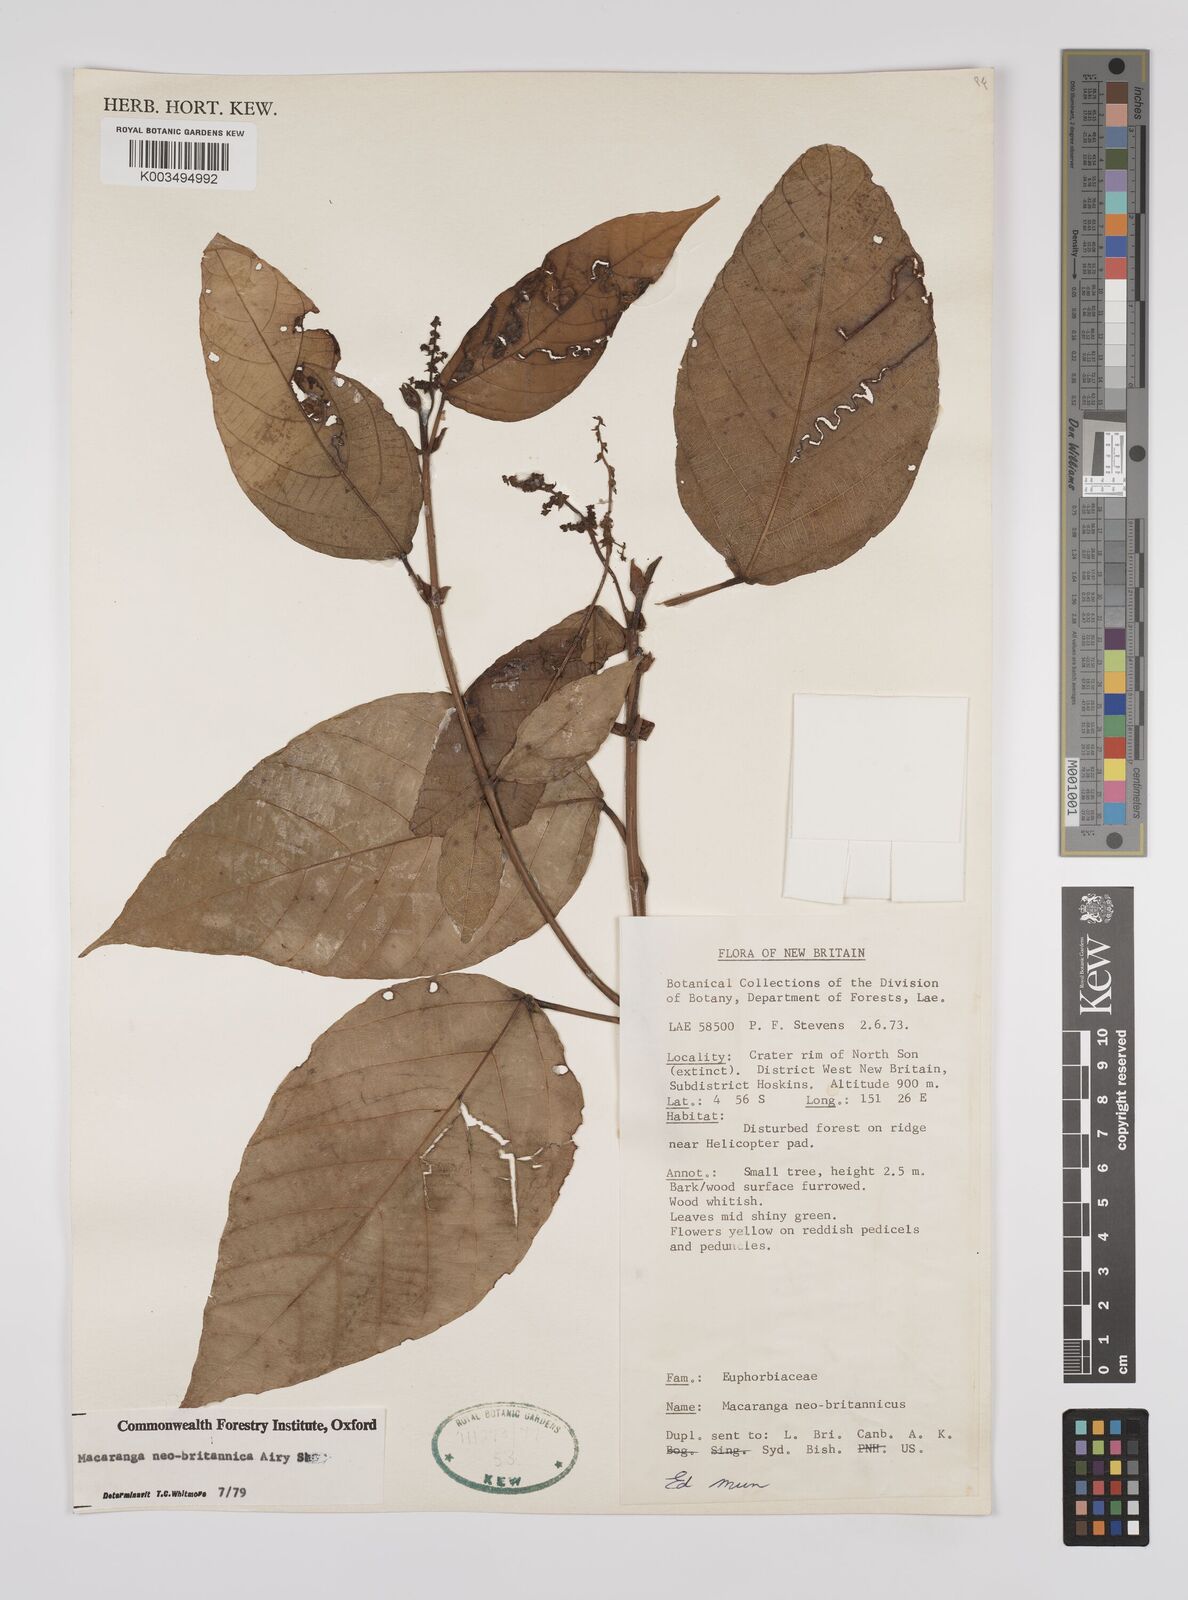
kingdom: Plantae
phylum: Tracheophyta
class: Magnoliopsida
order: Malpighiales
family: Euphorbiaceae
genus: Macaranga
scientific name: Macaranga neobritannica
